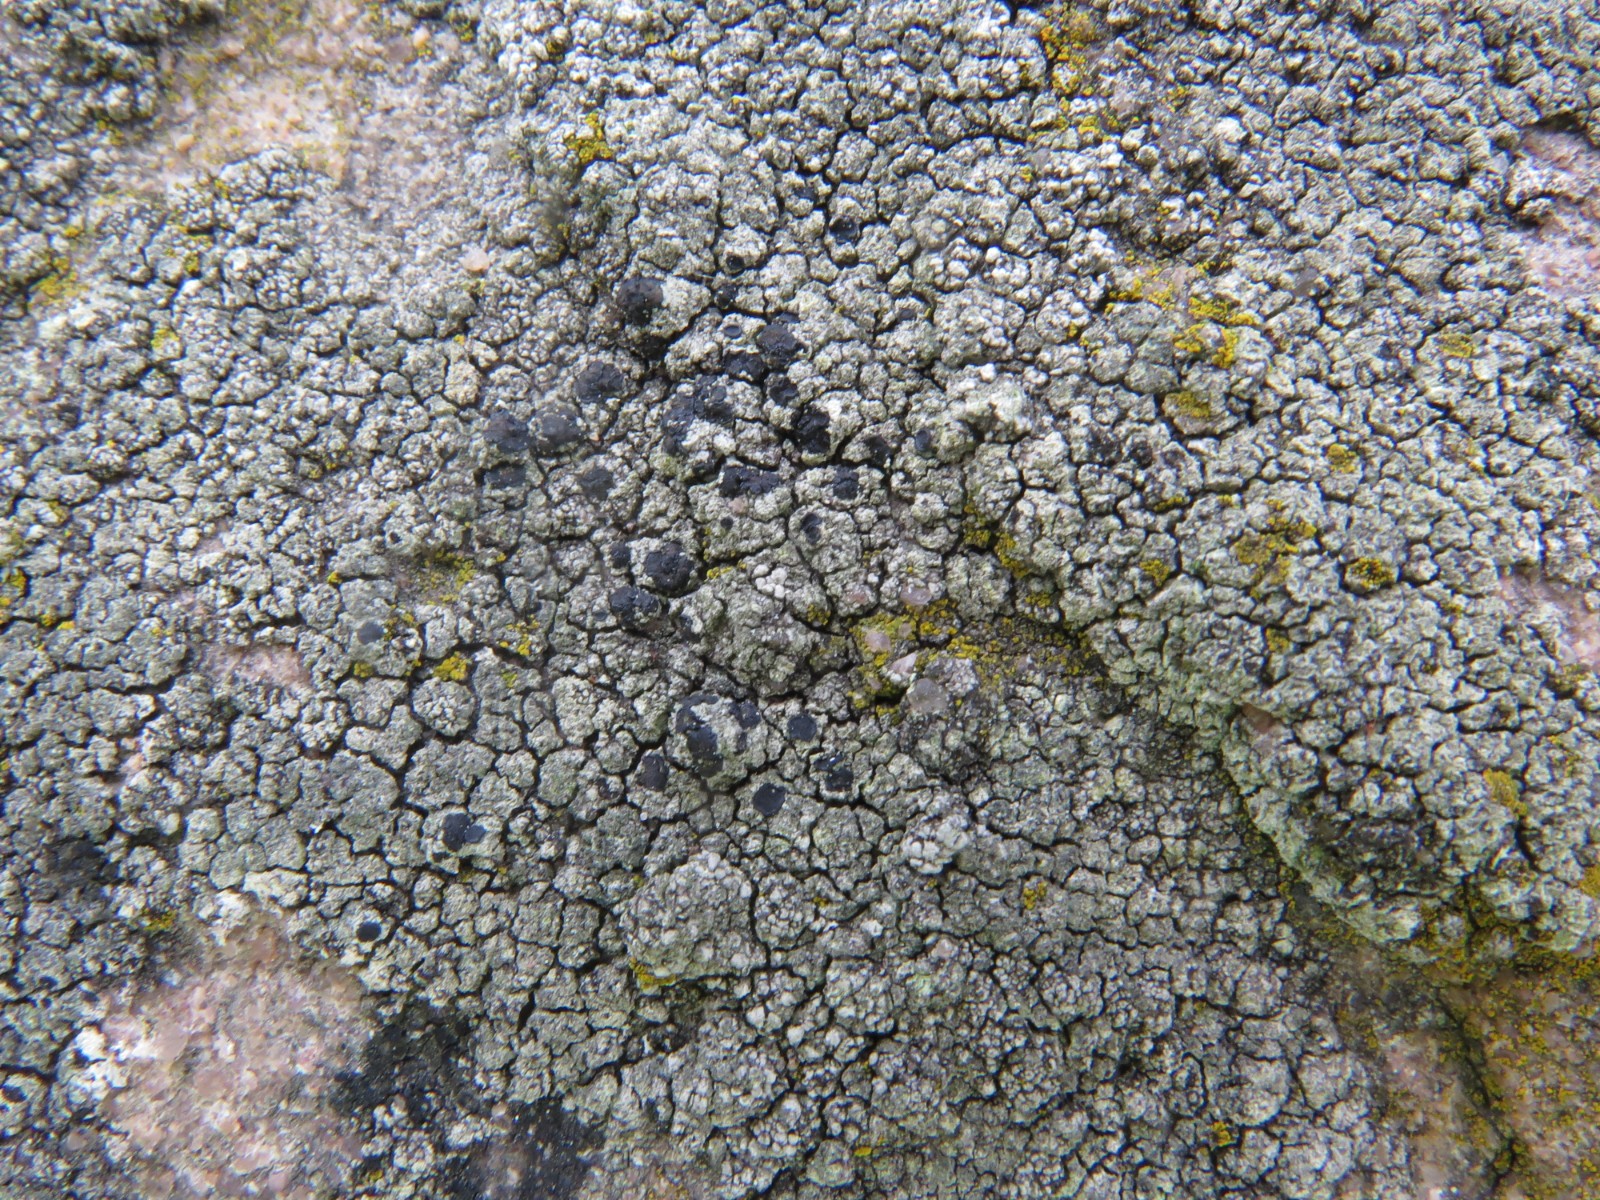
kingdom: Fungi
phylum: Ascomycota
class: Lecanoromycetes
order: Lecanorales
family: Lecanoraceae
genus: Lecidella
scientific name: Lecidella scabra
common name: skurvet skivelav
